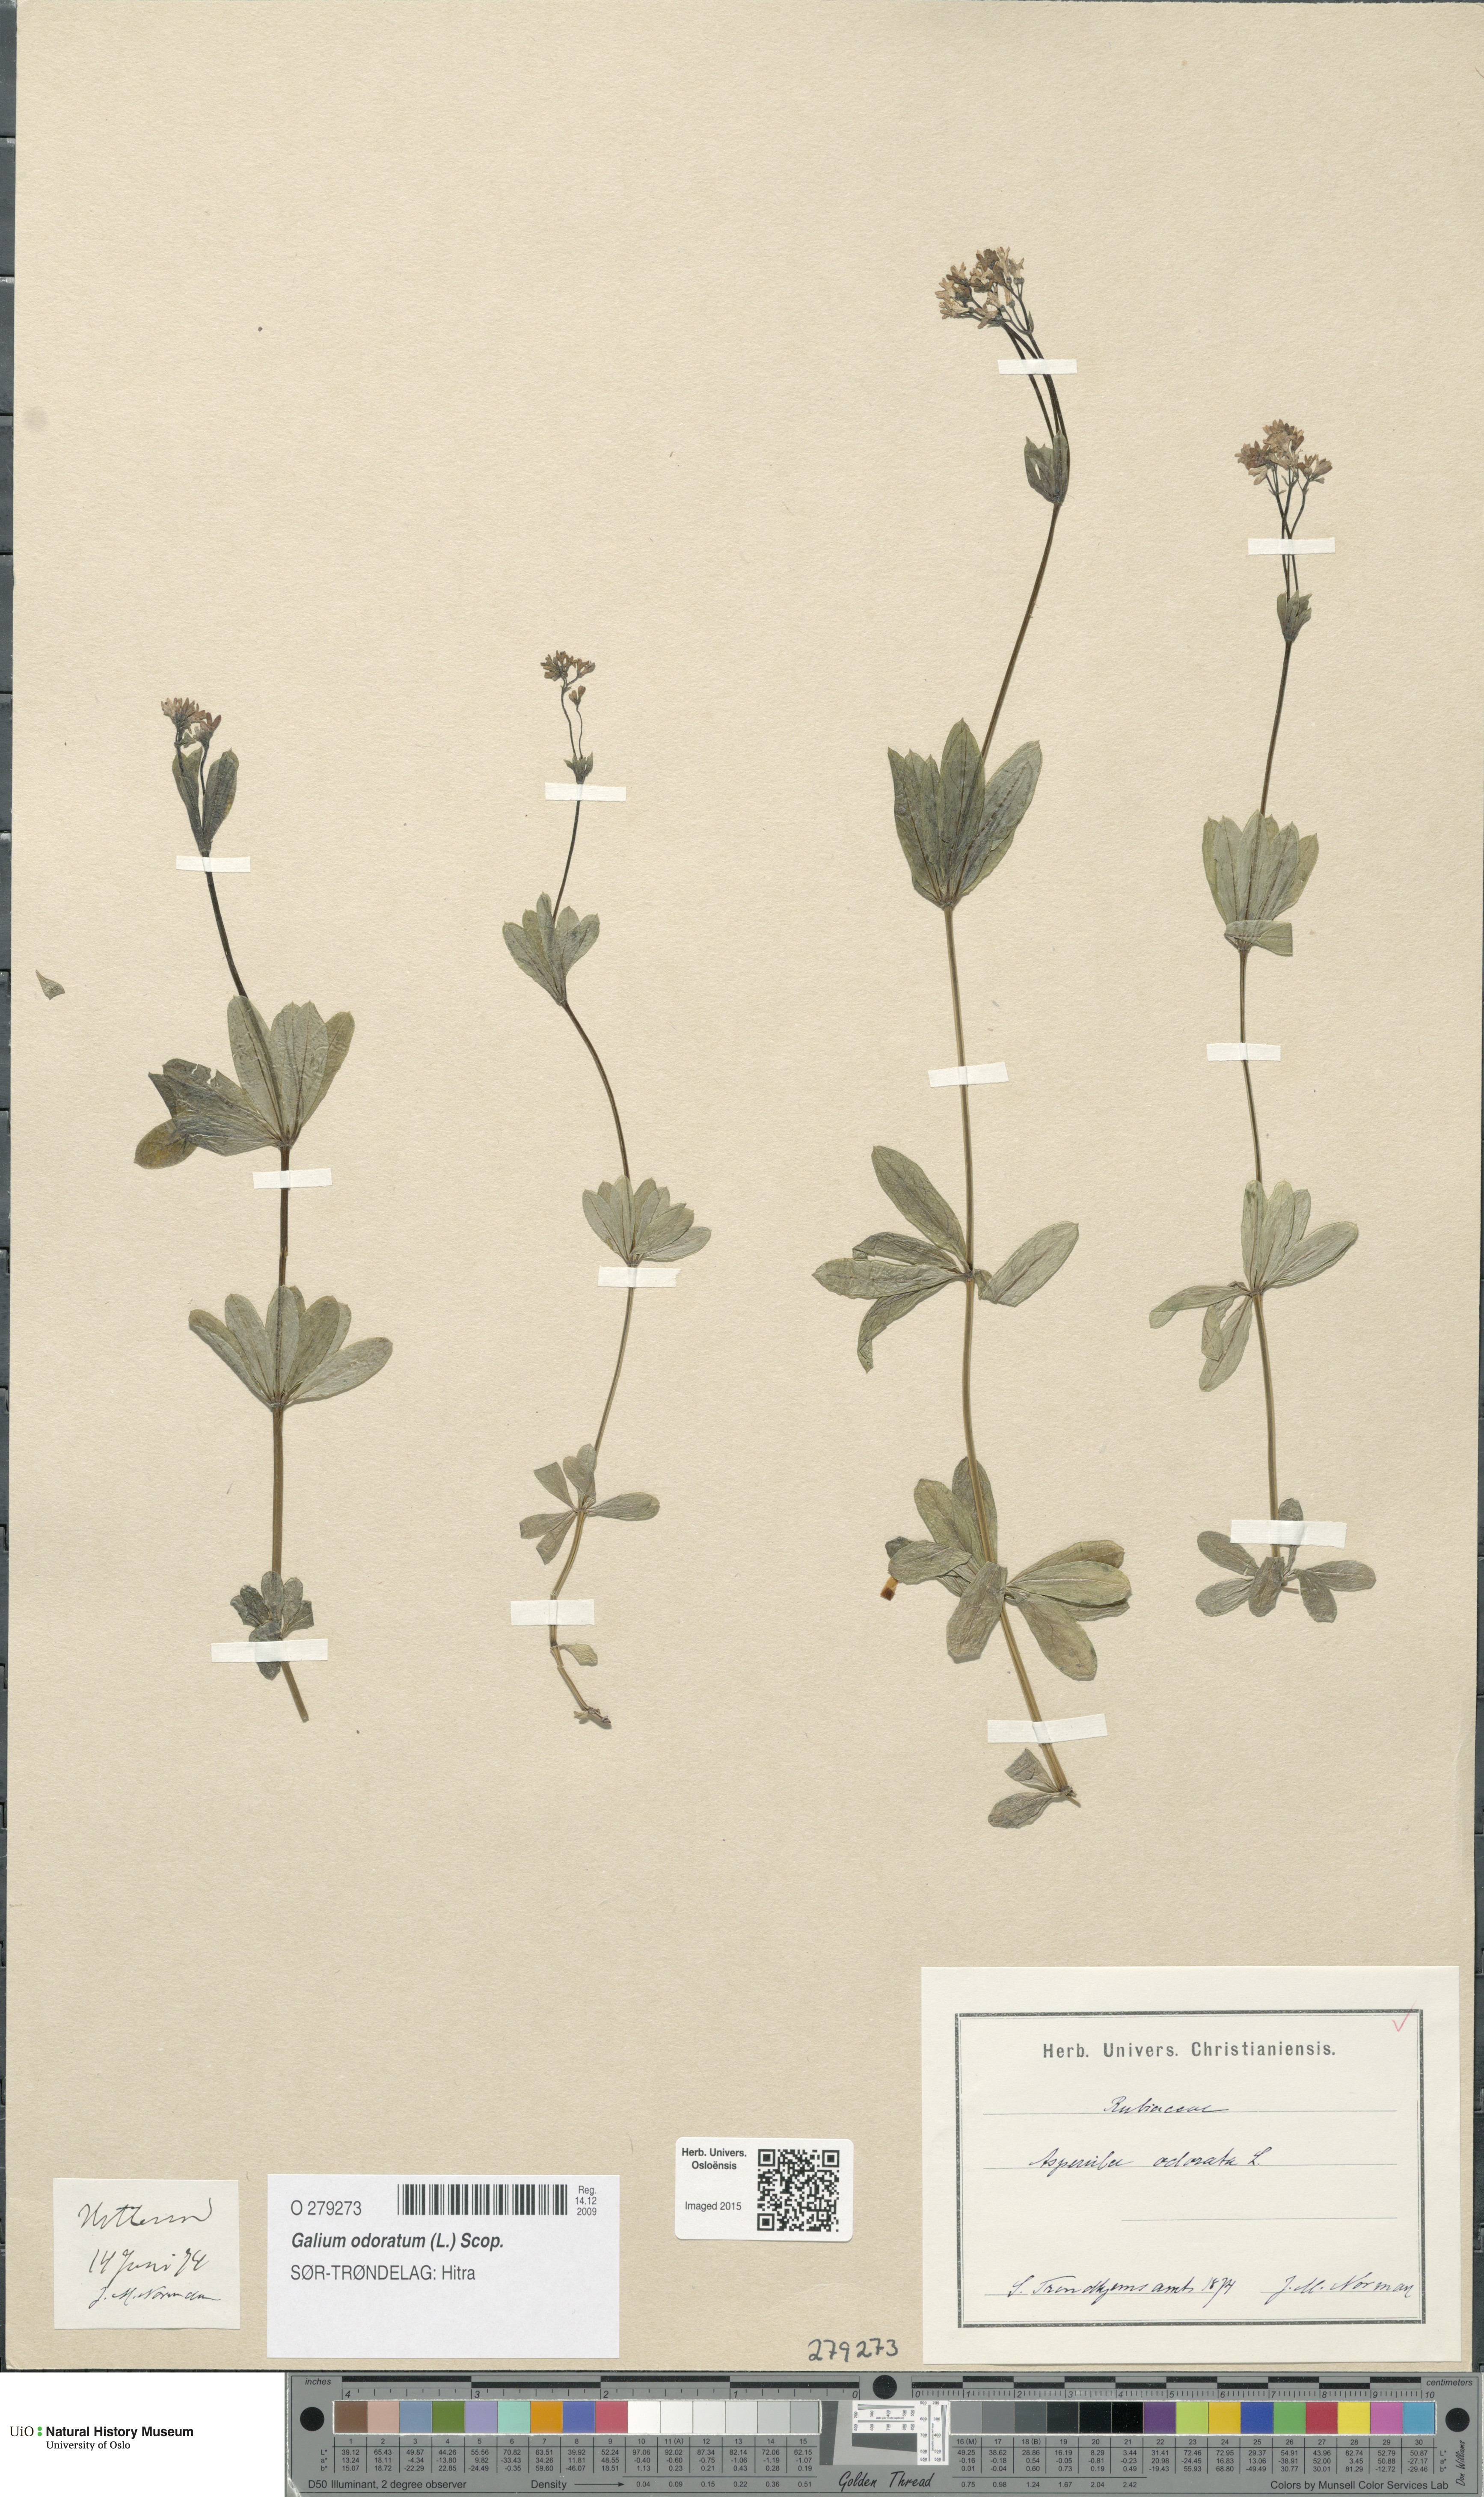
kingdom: Plantae
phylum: Tracheophyta
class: Magnoliopsida
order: Gentianales
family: Rubiaceae
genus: Galium
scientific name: Galium odoratum
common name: Sweet woodruff
